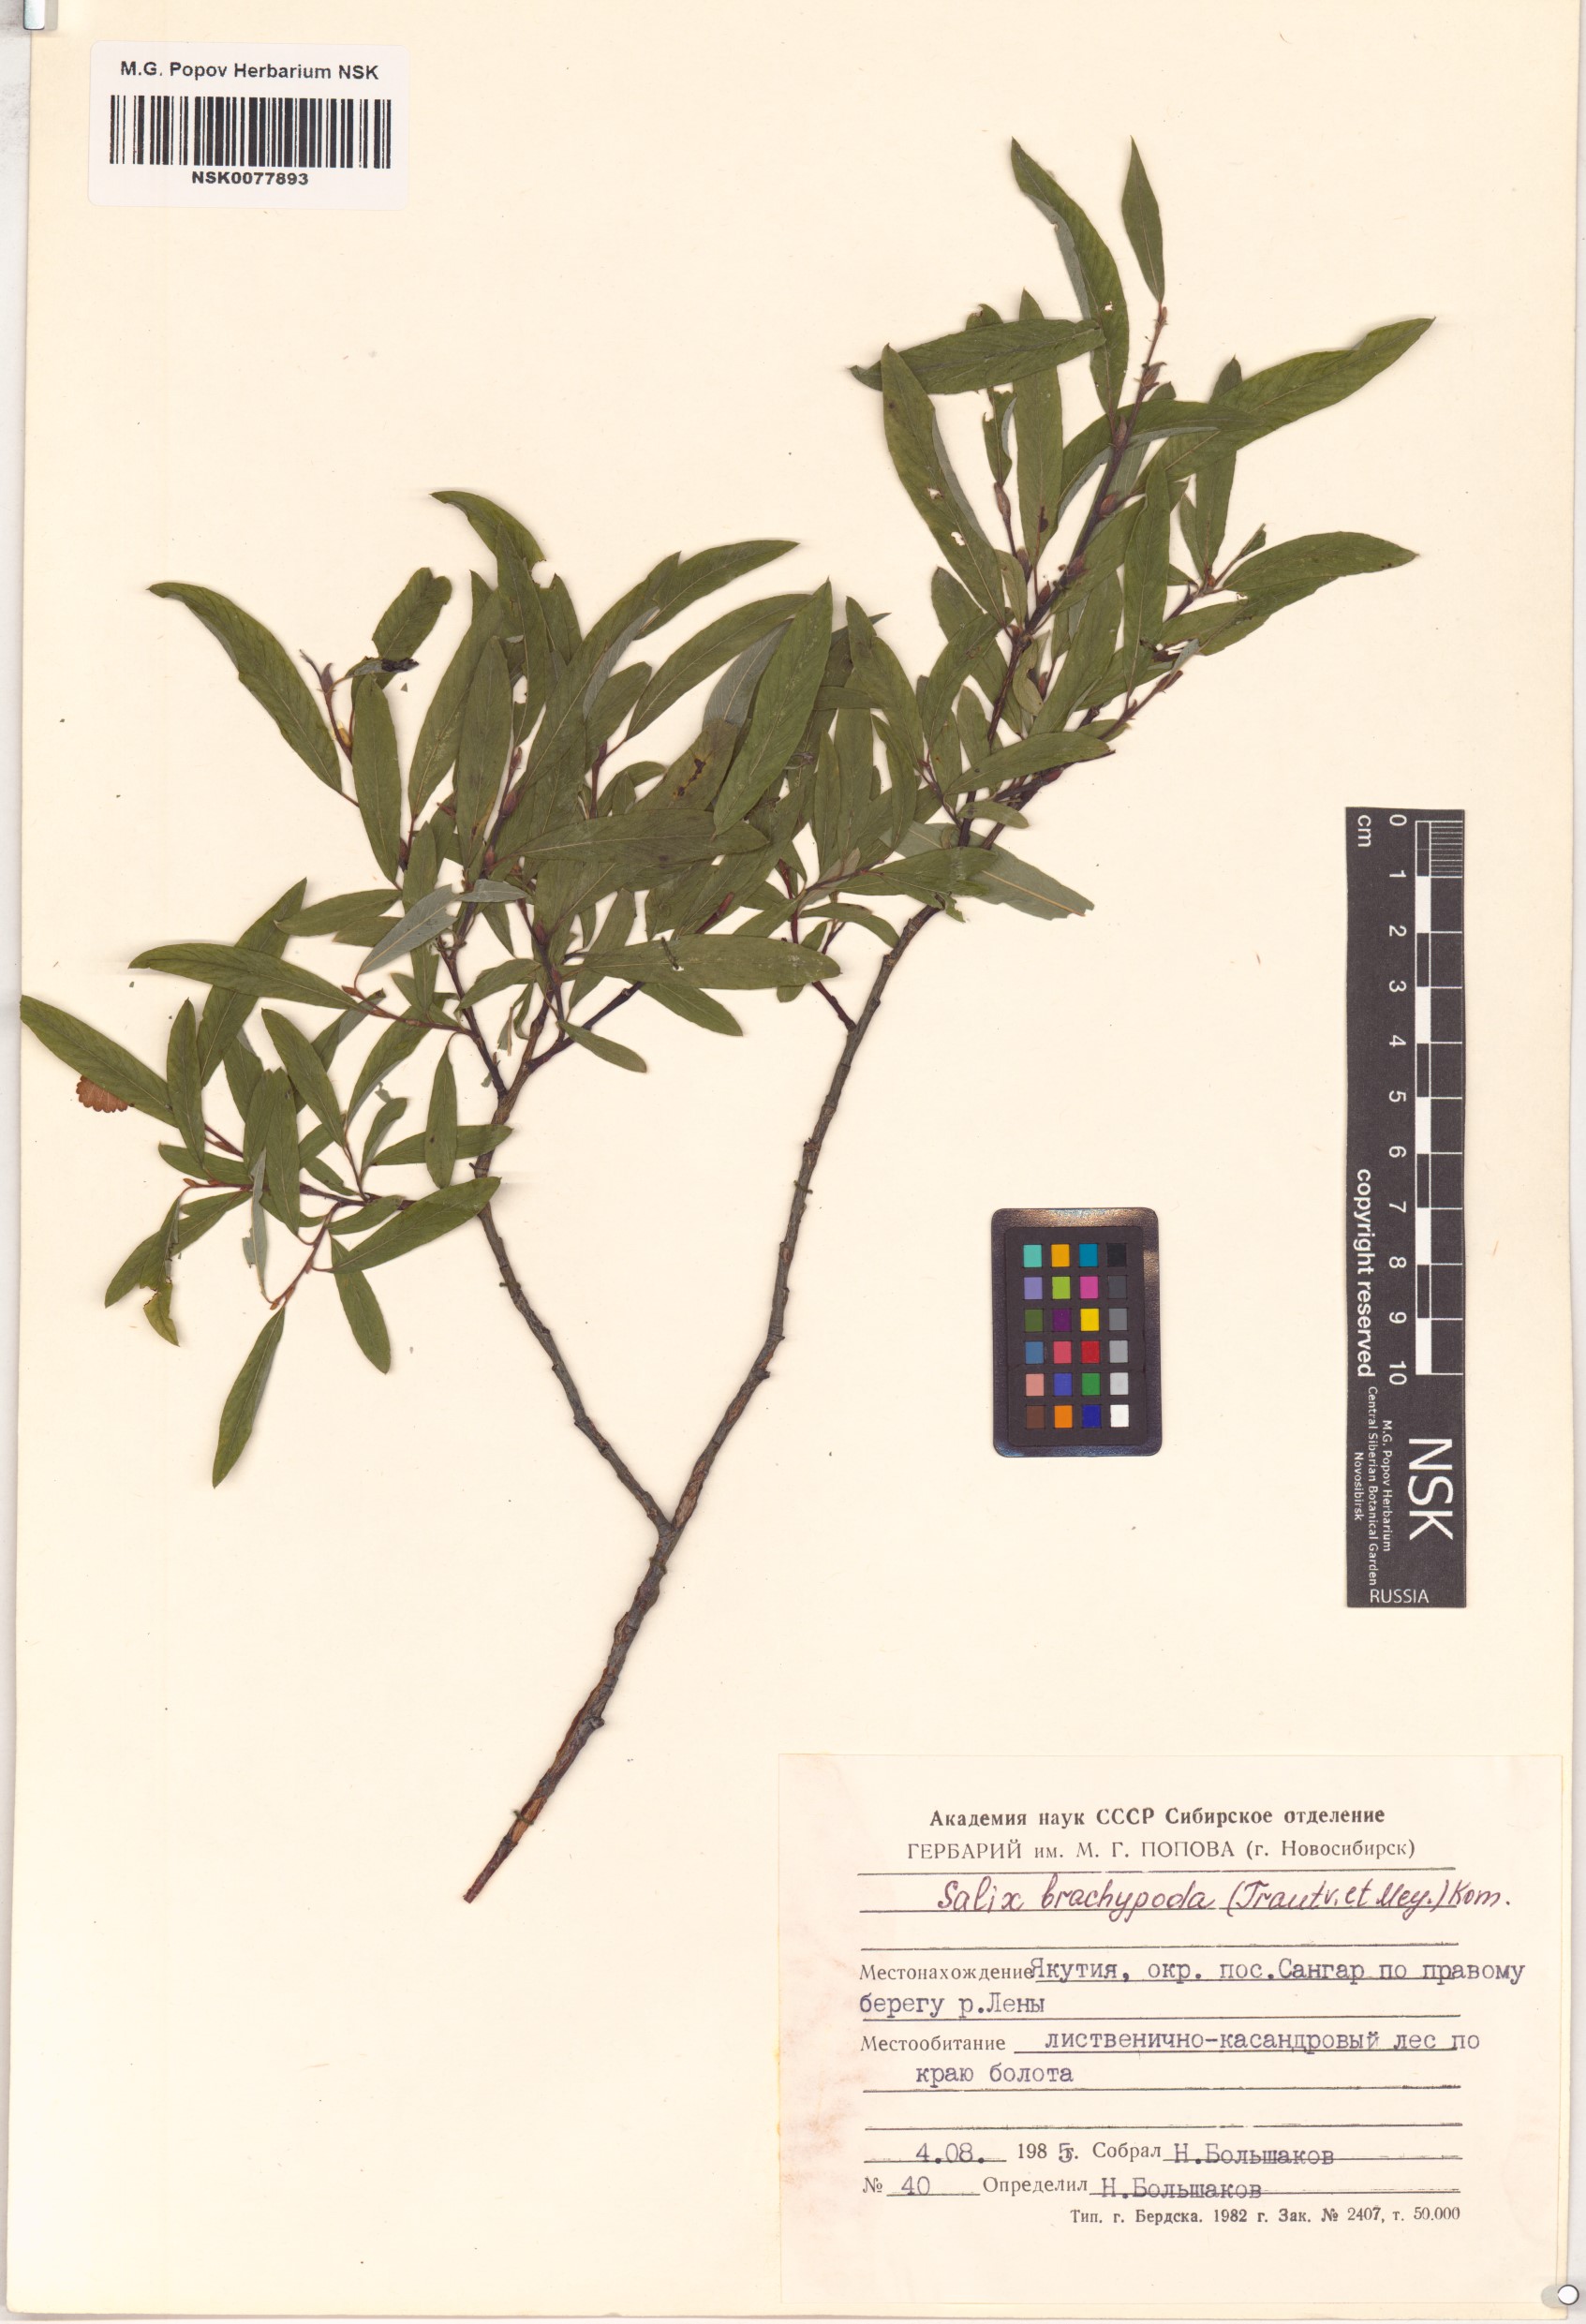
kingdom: Plantae
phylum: Tracheophyta
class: Magnoliopsida
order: Malpighiales
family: Salicaceae
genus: Salix
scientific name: Salix brachypoda
